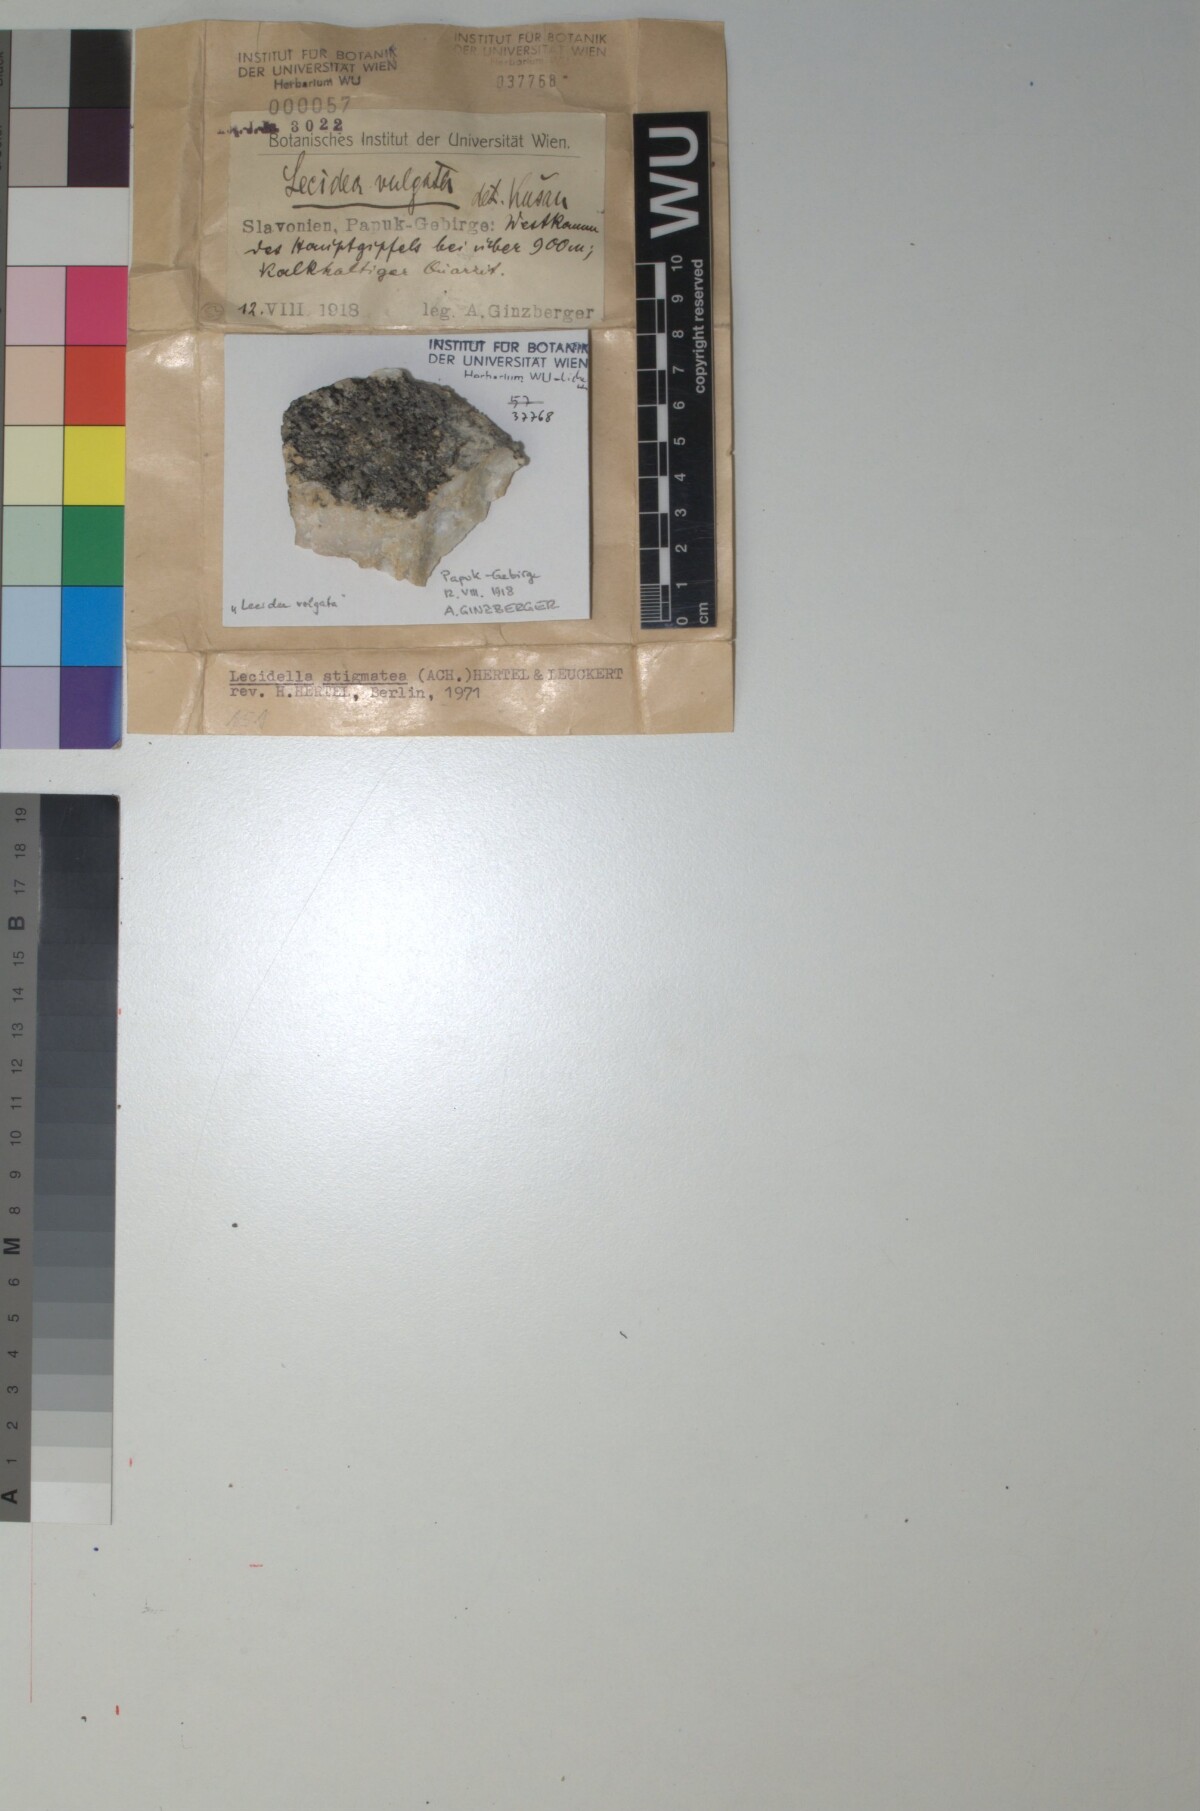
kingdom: Fungi
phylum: Ascomycota
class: Lecanoromycetes
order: Lecanorales
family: Lecanoraceae
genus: Lecidella
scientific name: Lecidella stigmatea
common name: Limestone disc lichen
